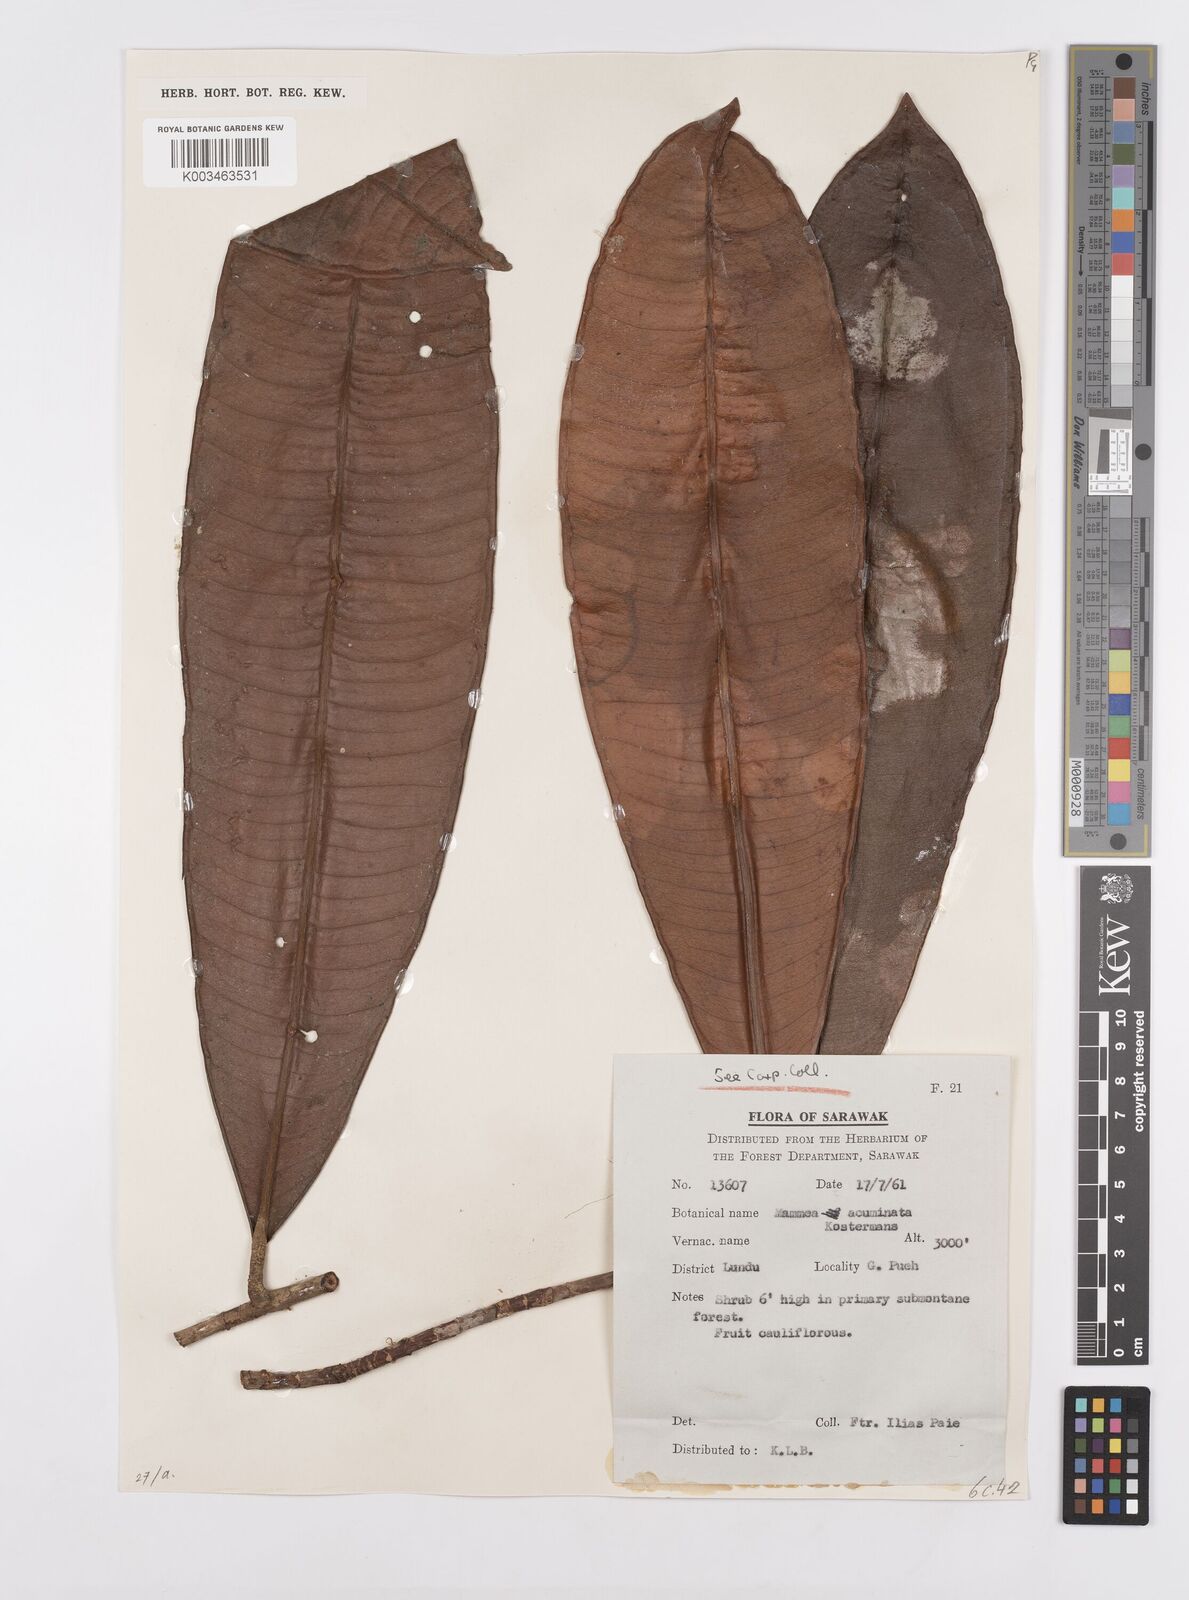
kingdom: Plantae
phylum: Tracheophyta
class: Magnoliopsida
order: Malpighiales
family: Calophyllaceae
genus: Mammea
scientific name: Mammea acuminata
